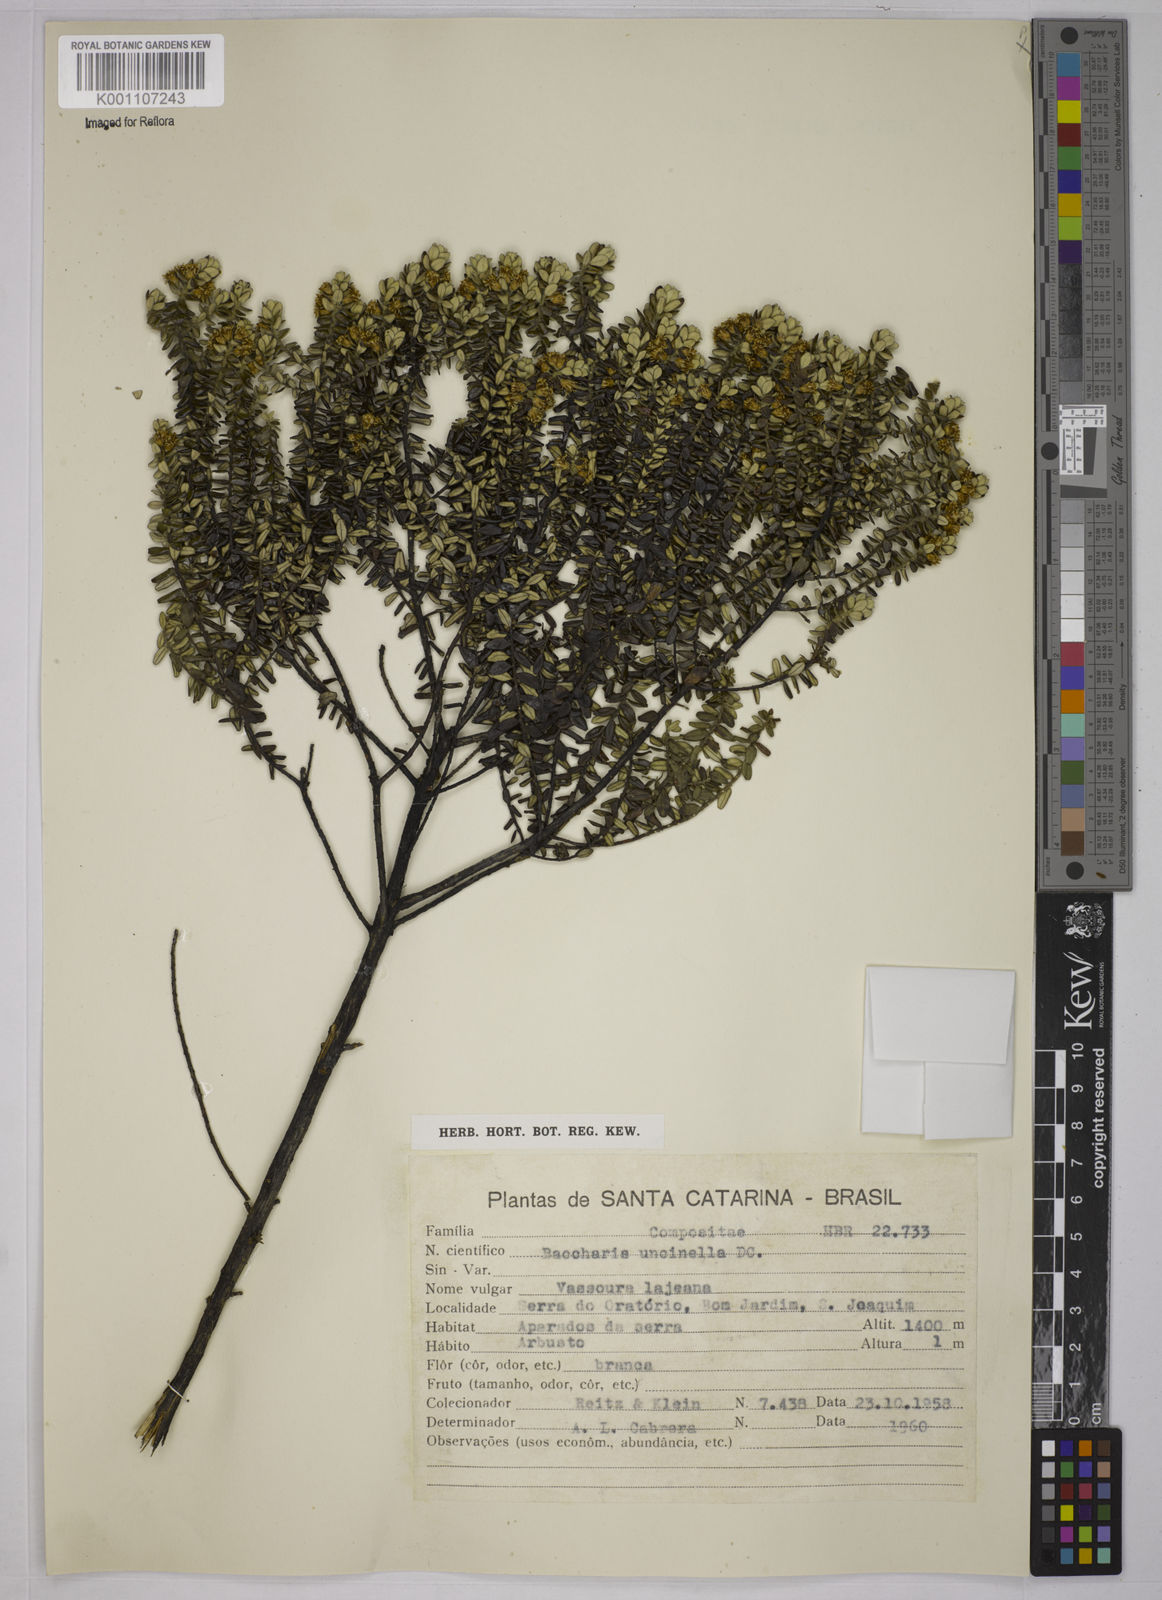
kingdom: Plantae
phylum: Tracheophyta
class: Magnoliopsida
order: Asterales
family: Asteraceae
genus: Baccharis
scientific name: Baccharis uncinella
